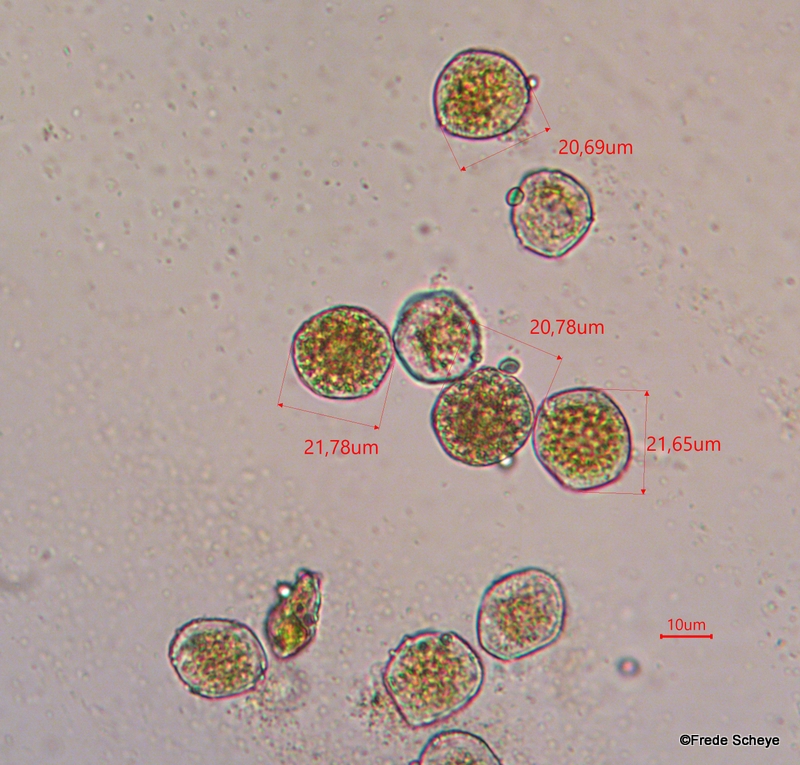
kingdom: Fungi
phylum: Basidiomycota
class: Pucciniomycetes
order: Pucciniales
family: Pucciniaceae
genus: Uromyces
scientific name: Uromyces dactylidis
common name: ranunkel-encellerust
